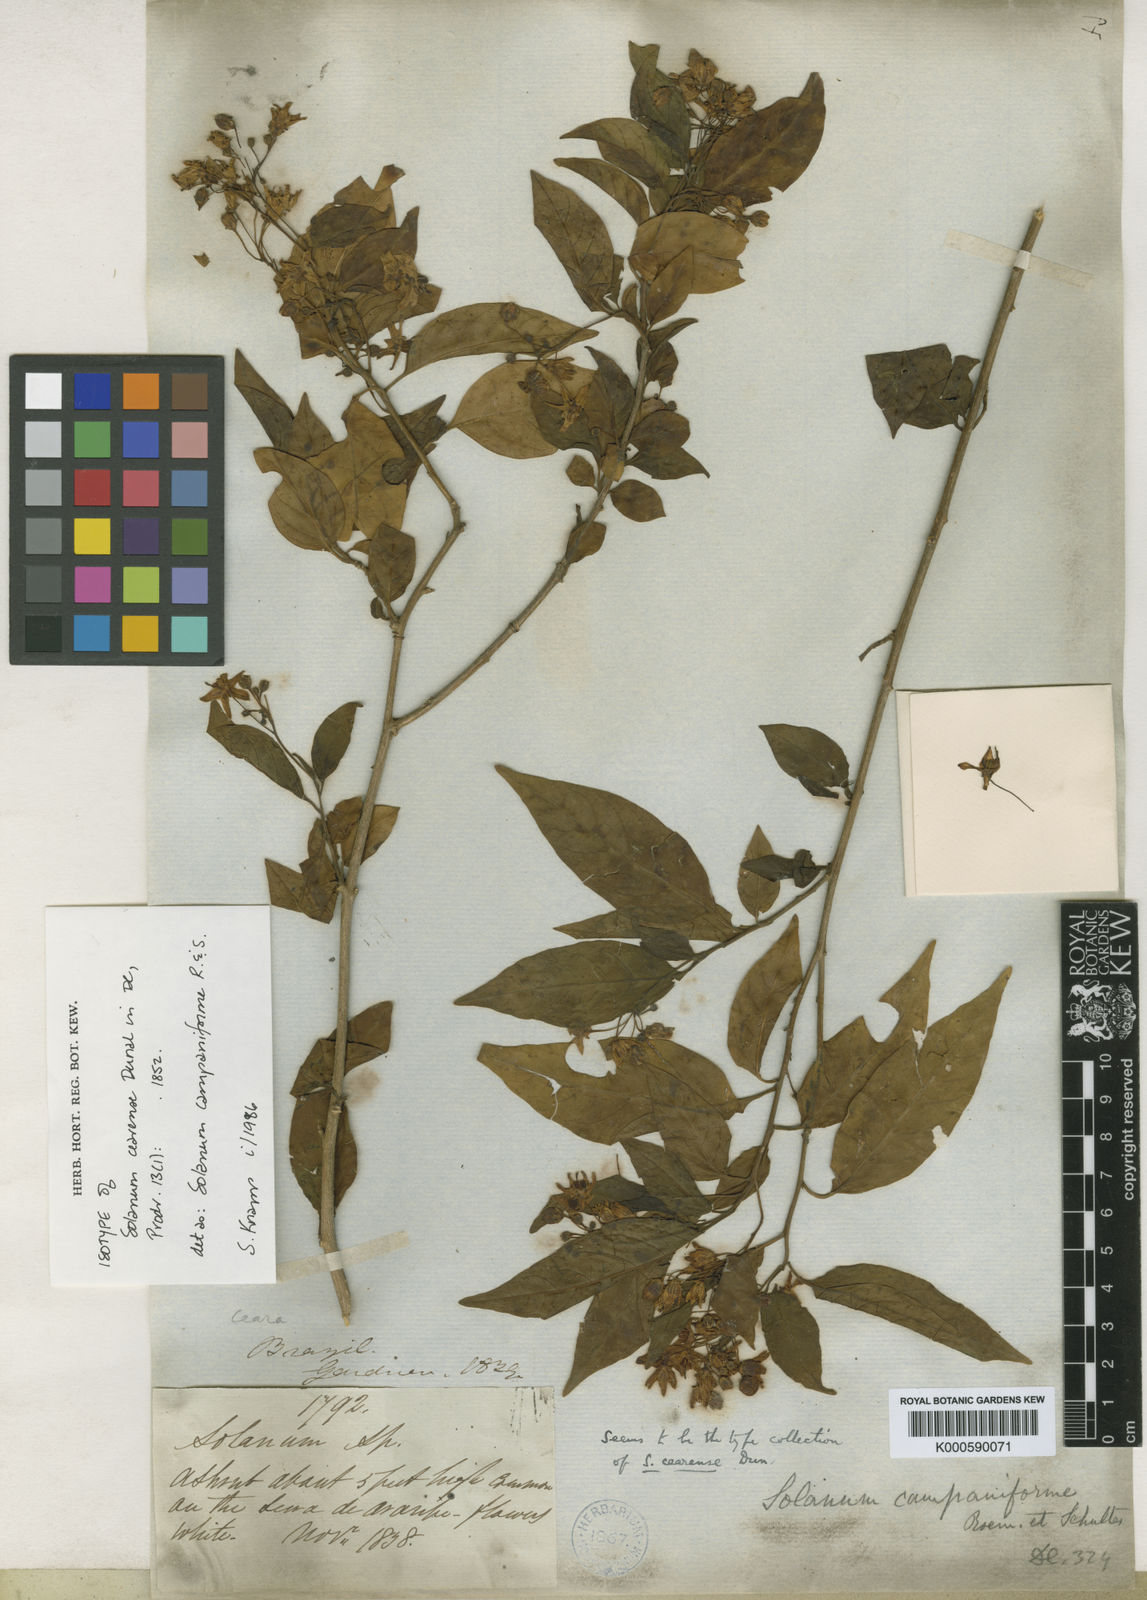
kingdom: Plantae
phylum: Tracheophyta
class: Magnoliopsida
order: Solanales
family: Solanaceae
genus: Solanum
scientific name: Solanum campaniforme
